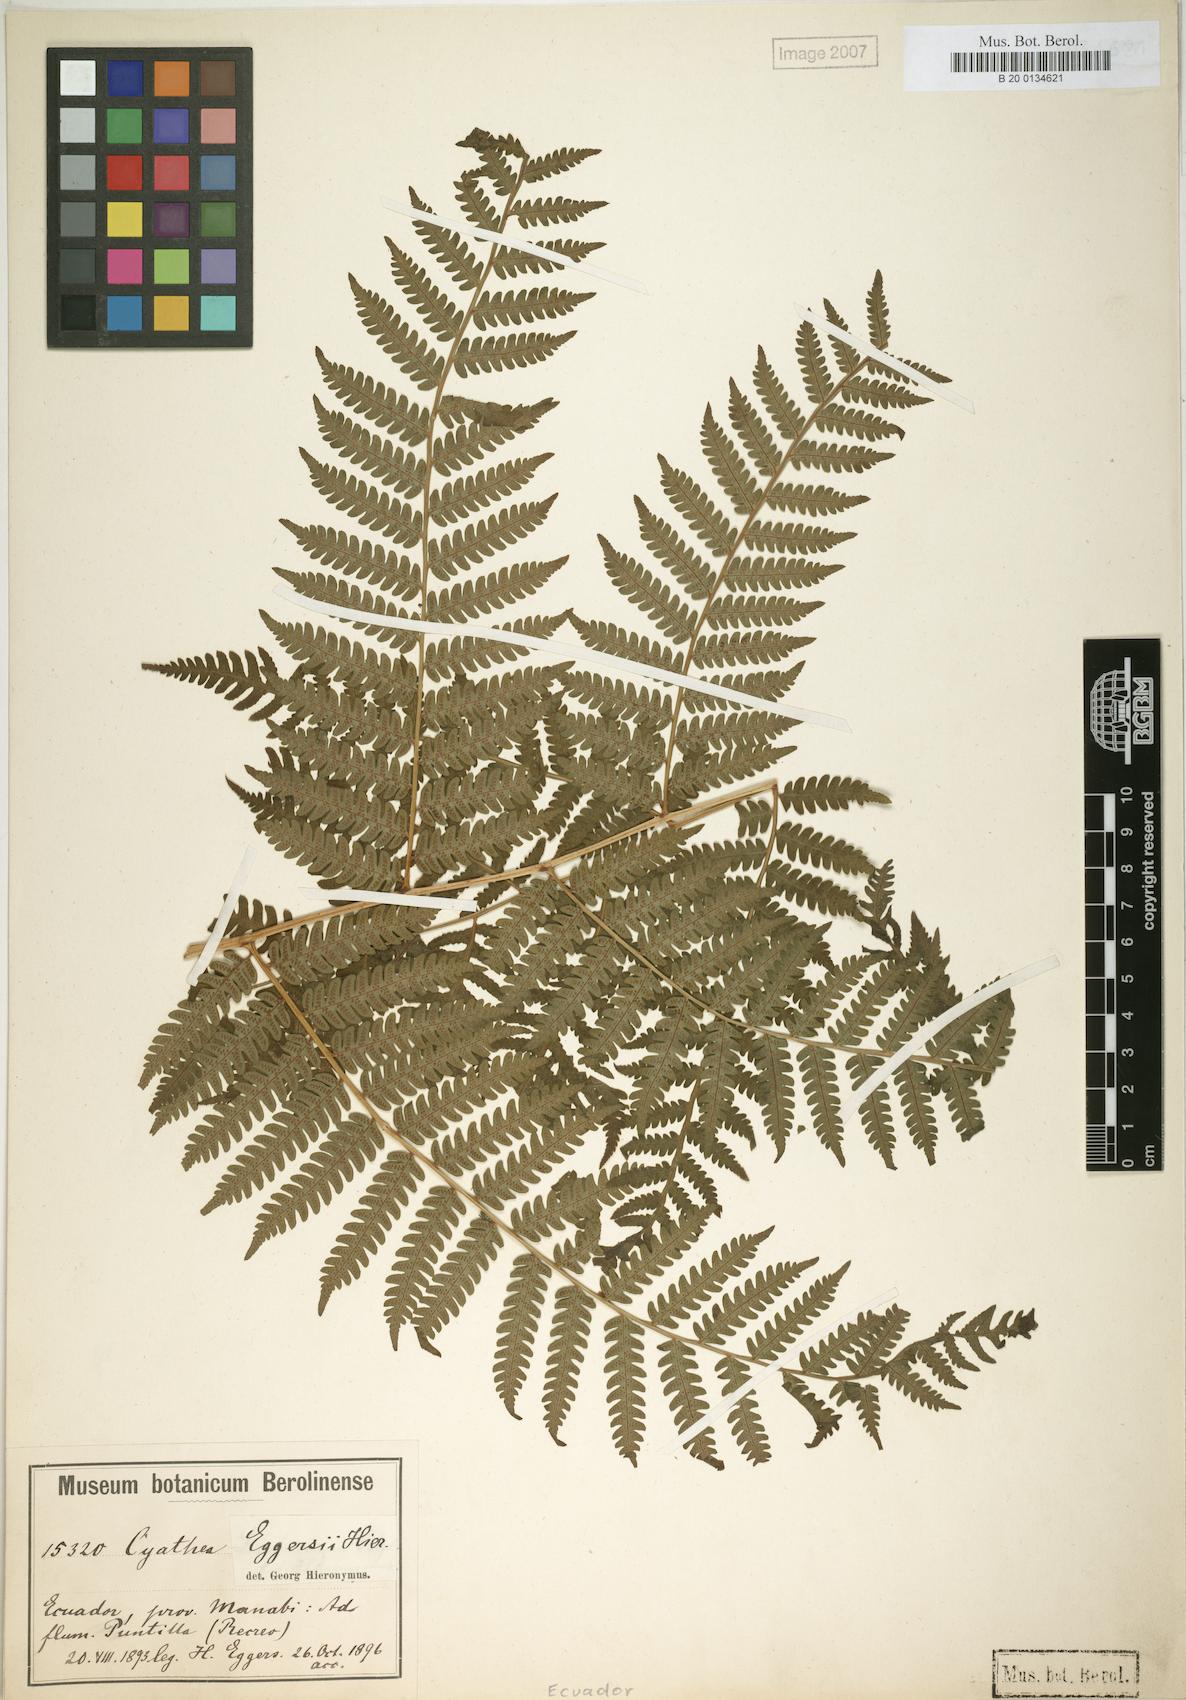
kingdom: Plantae
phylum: Tracheophyta
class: Polypodiopsida
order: Cyatheales
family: Cyatheaceae
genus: Cyathea
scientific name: Cyathea eggersii
